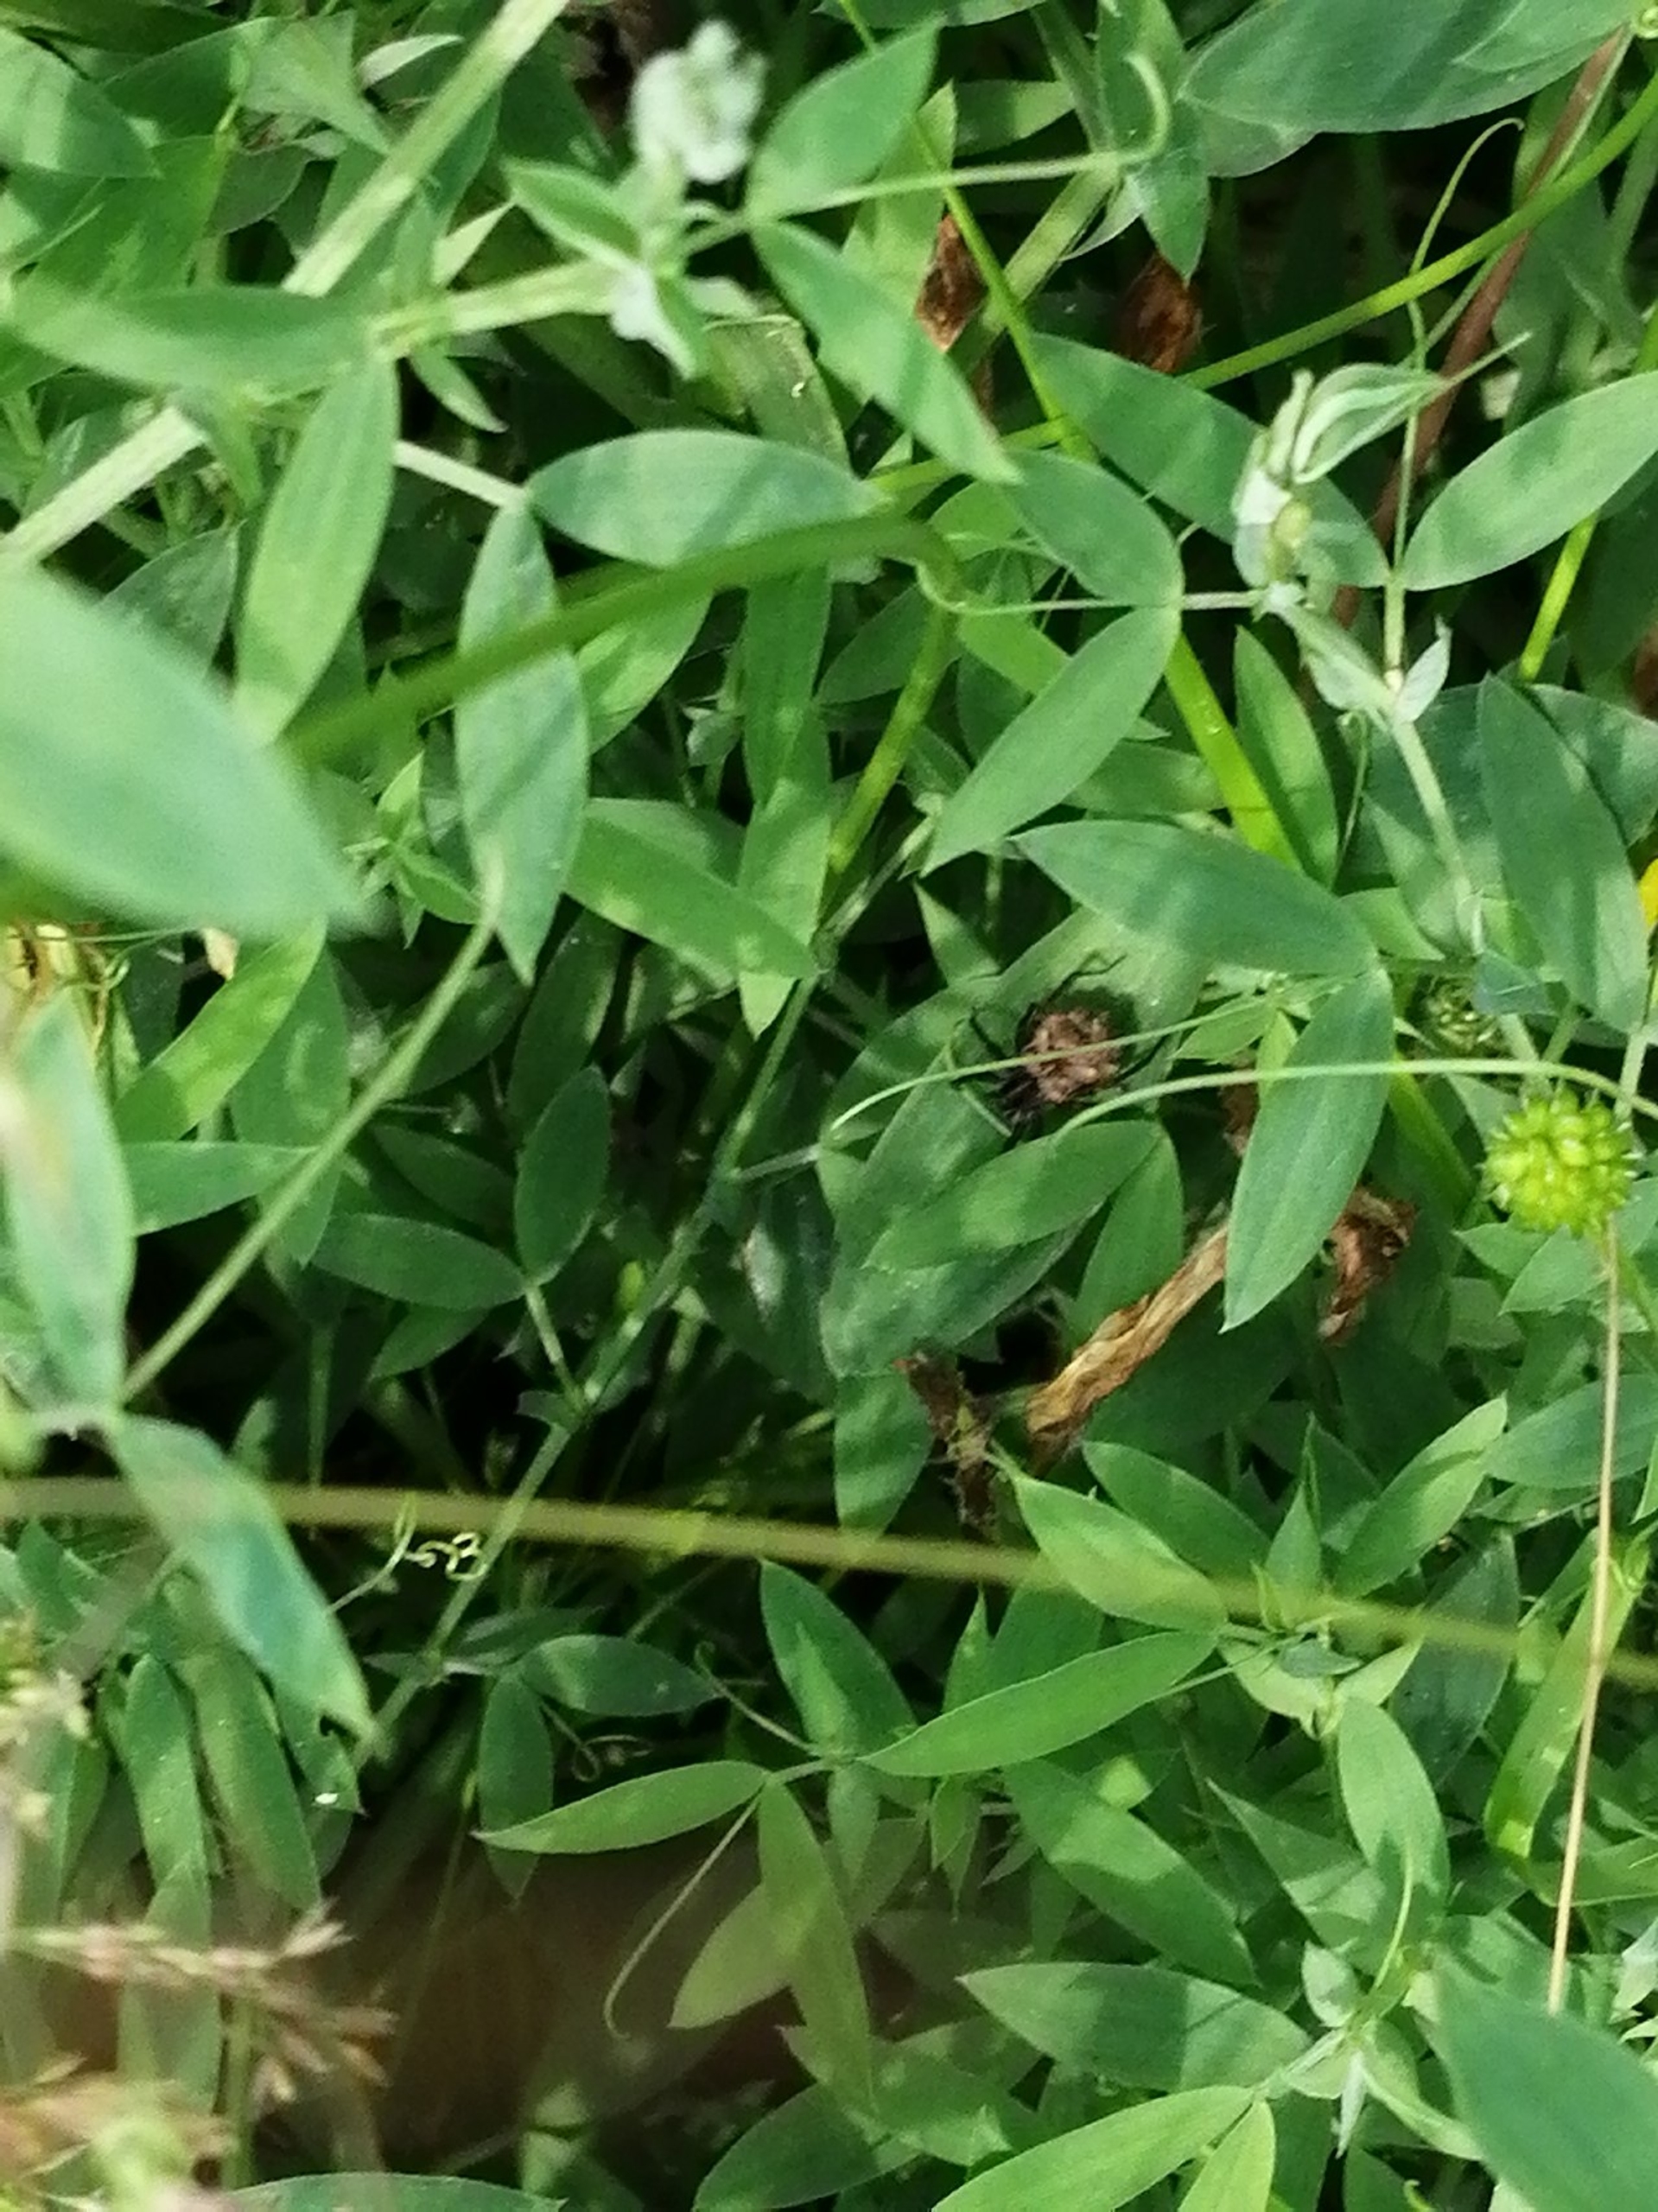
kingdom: Animalia
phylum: Arthropoda
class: Arachnida
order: Araneae
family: Lycosidae
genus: Pardosa
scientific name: Pardosa
